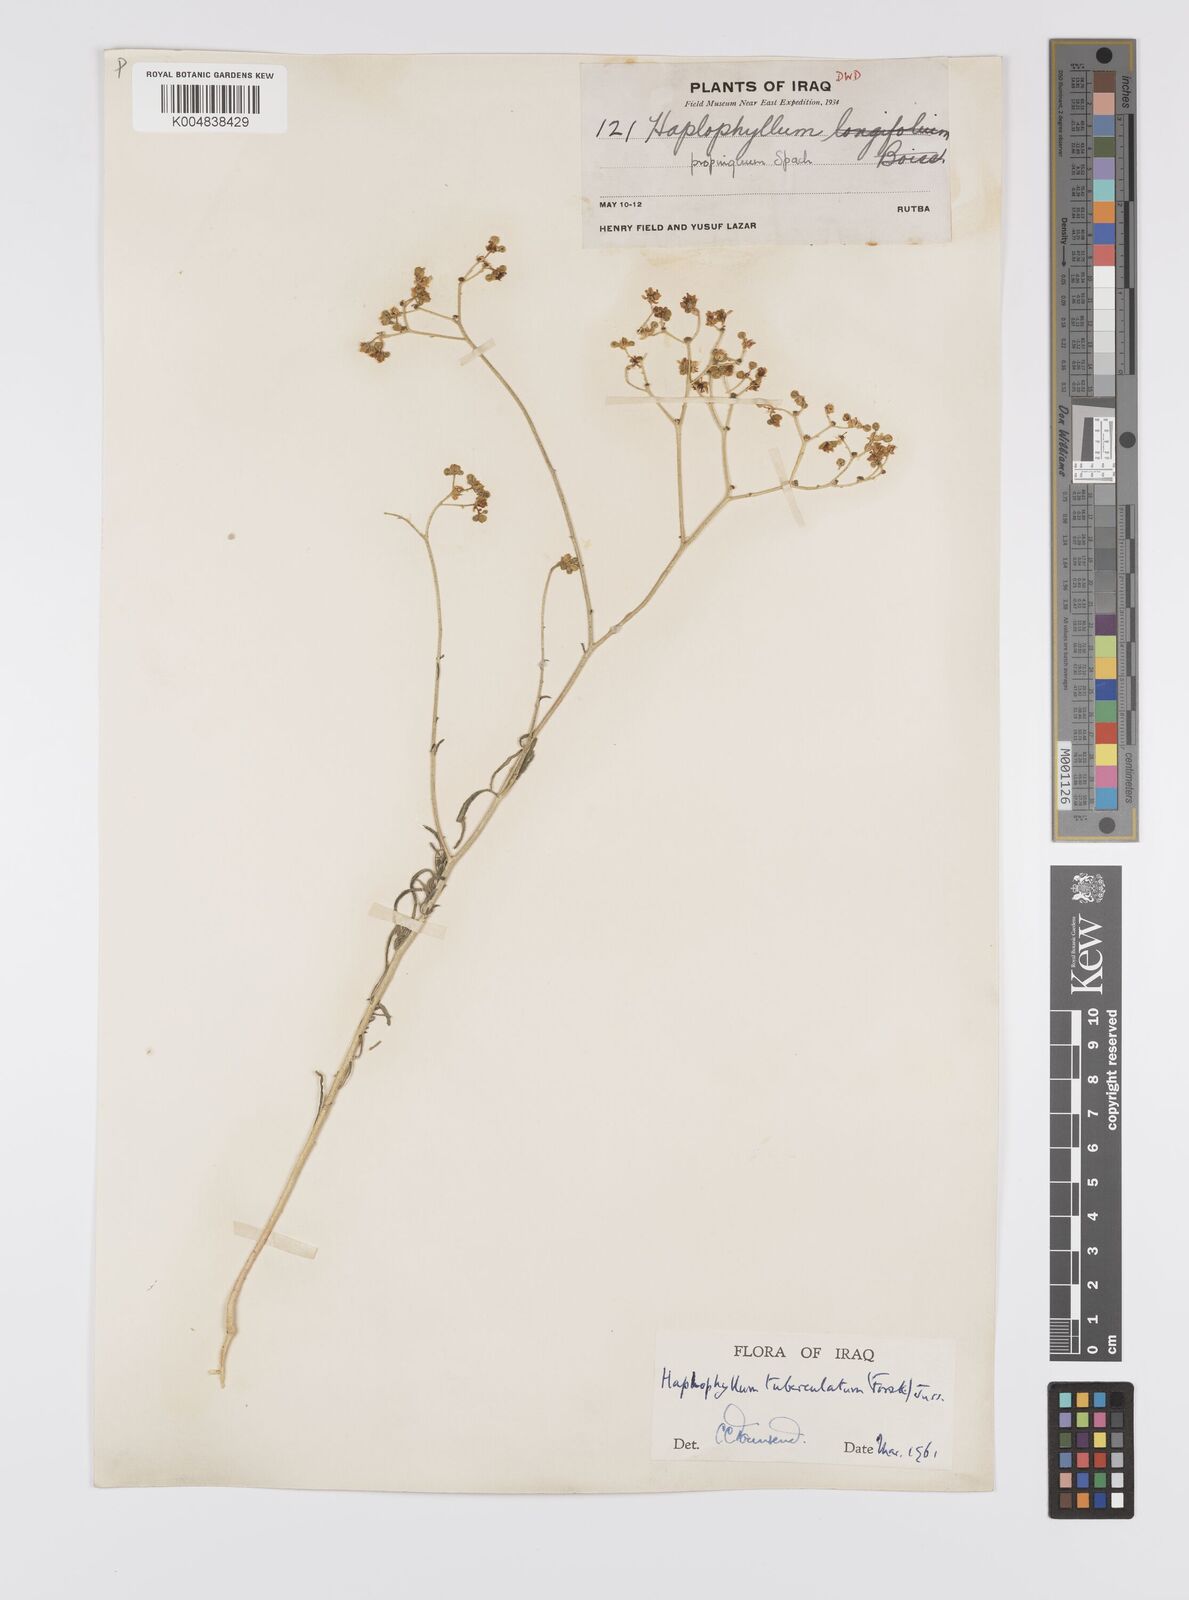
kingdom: Plantae
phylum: Tracheophyta
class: Magnoliopsida
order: Sapindales
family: Rutaceae
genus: Haplophyllum
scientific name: Haplophyllum tuberculatum
